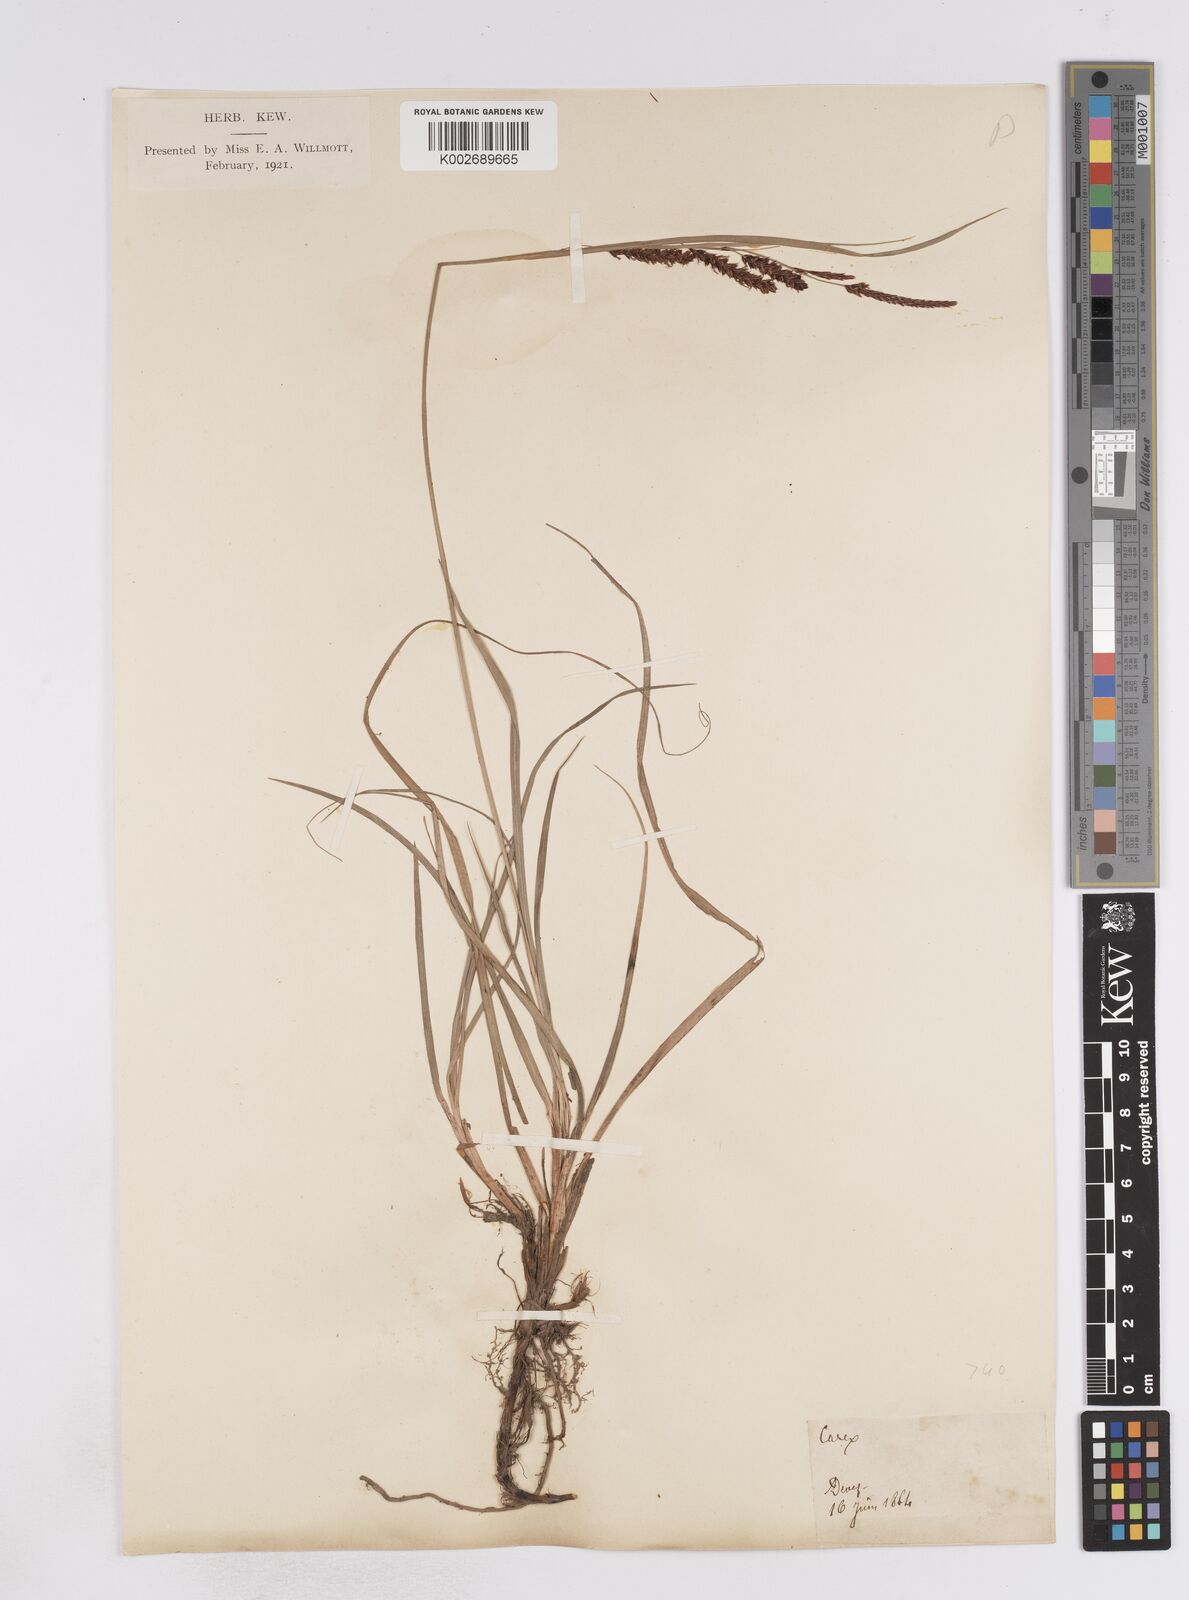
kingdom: Plantae
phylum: Tracheophyta
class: Liliopsida
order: Poales
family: Cyperaceae
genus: Carex
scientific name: Carex flacca
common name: Glaucous sedge
